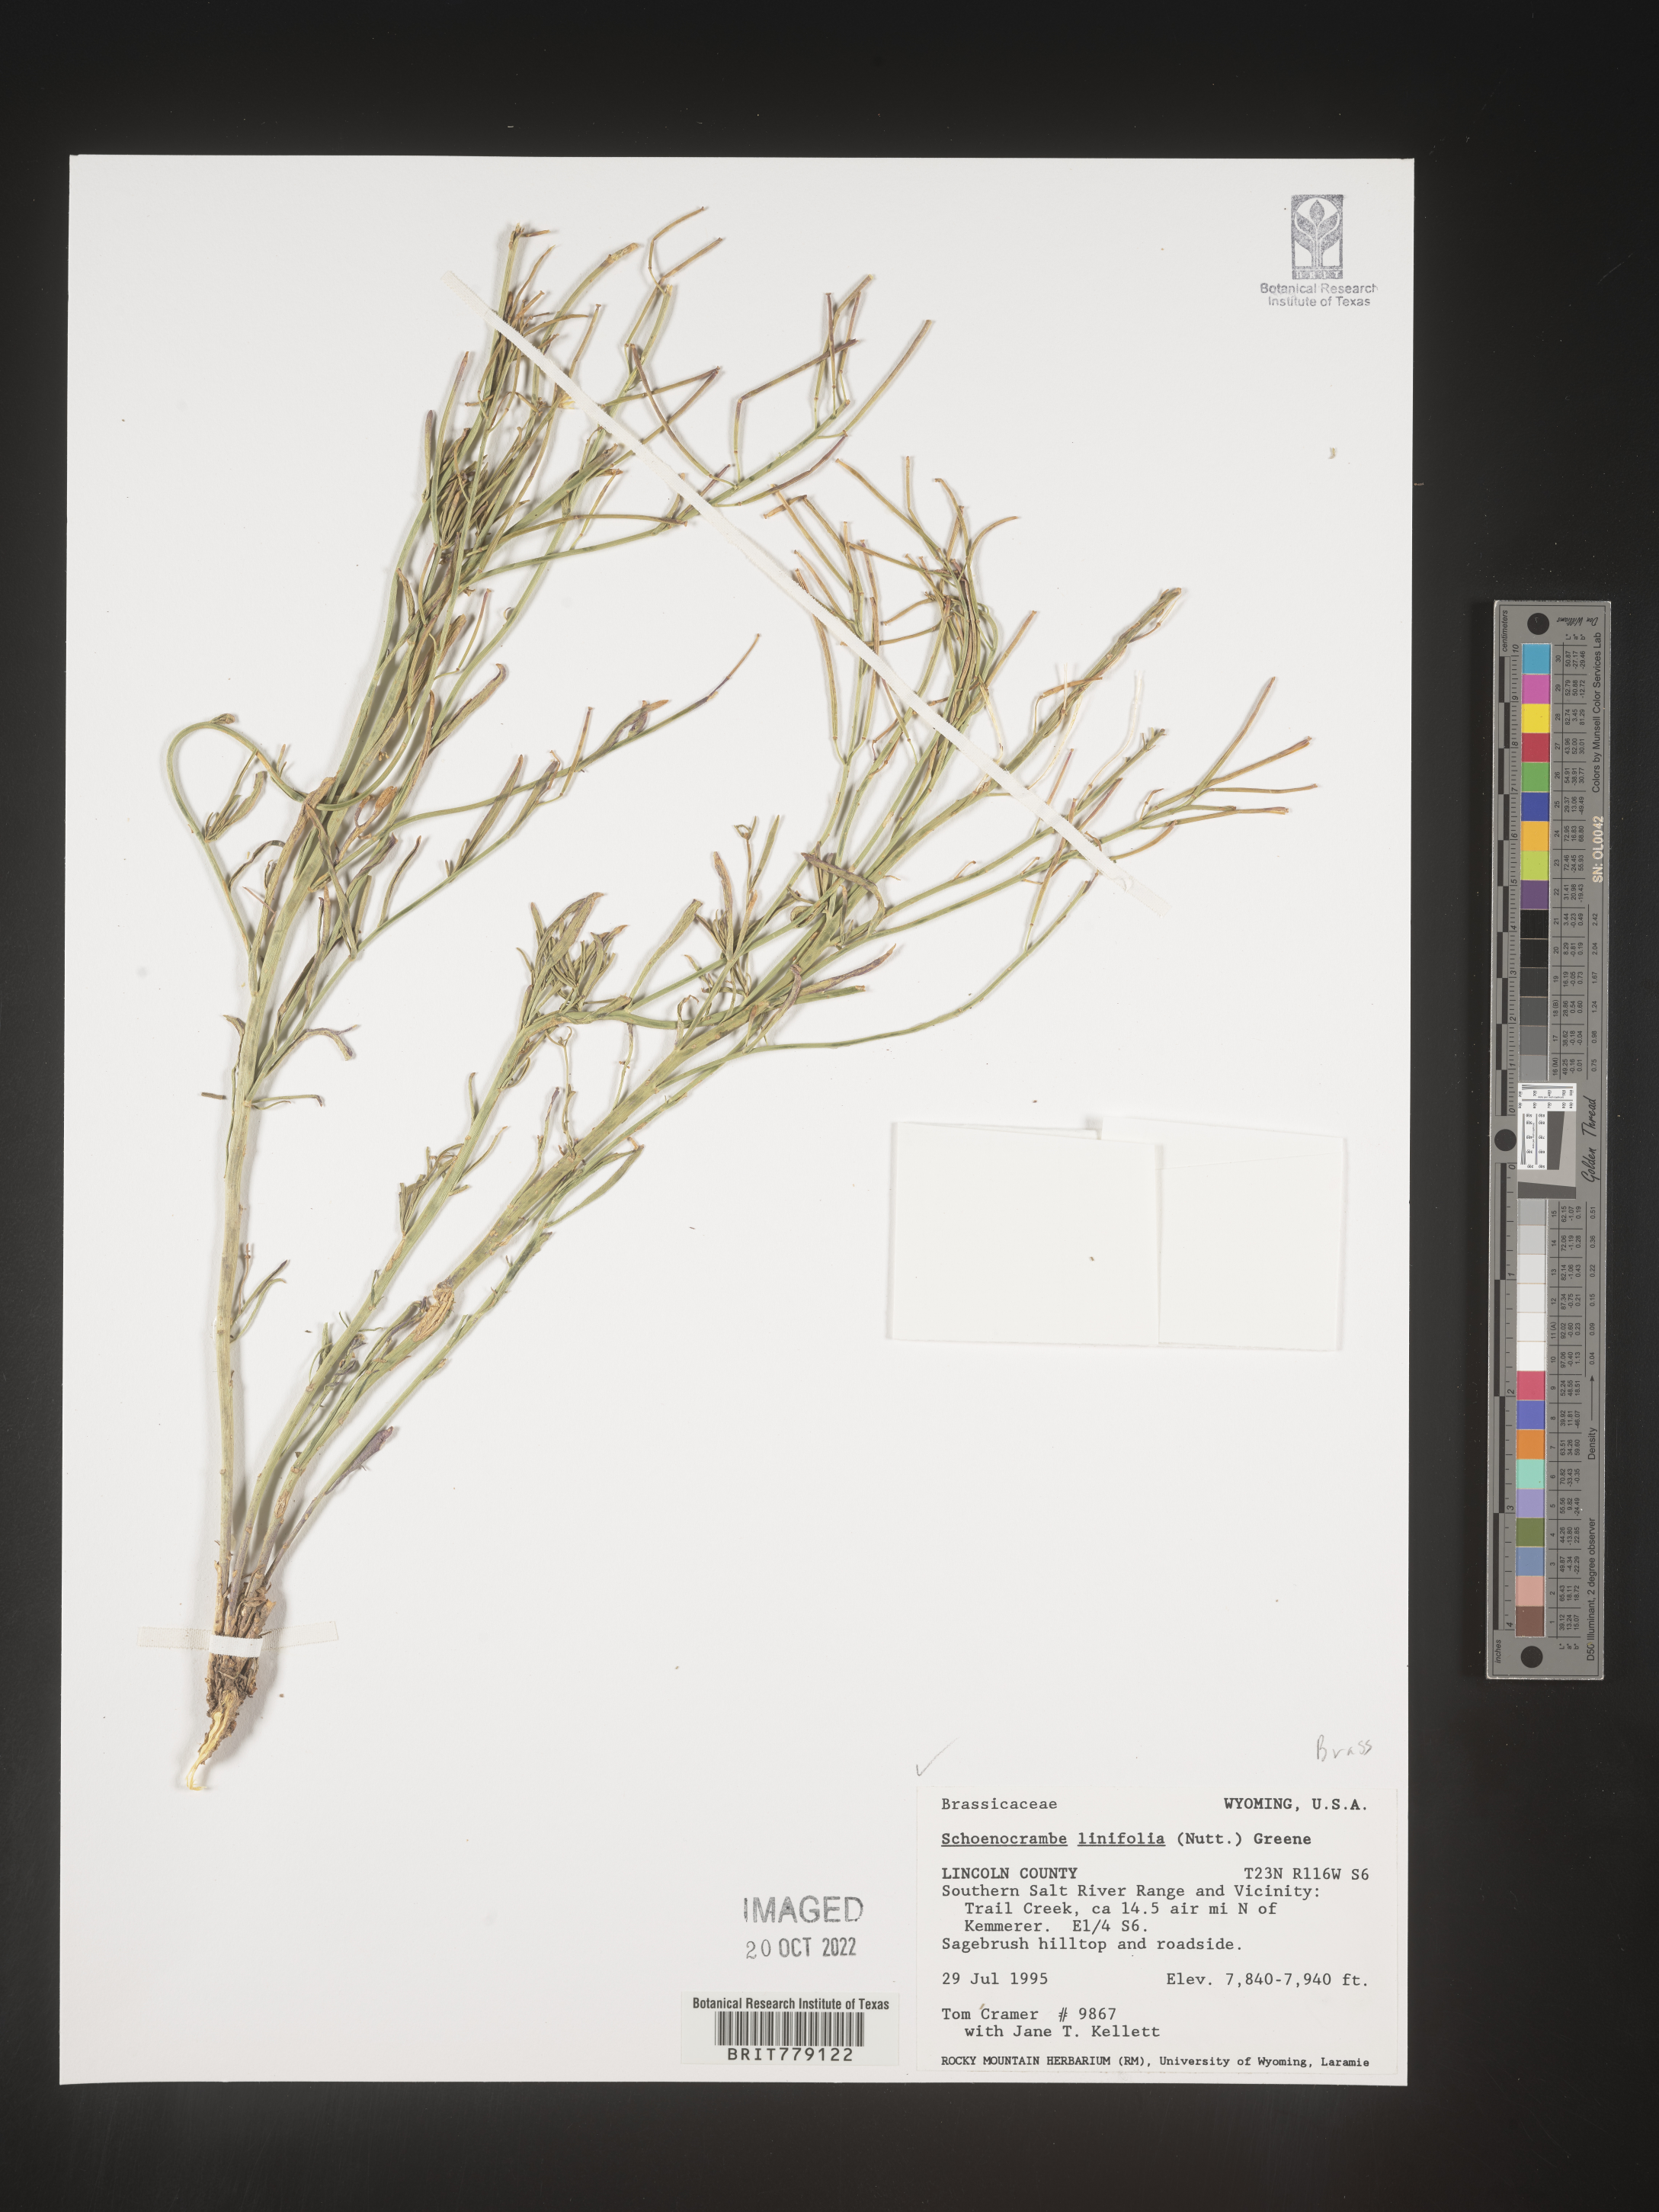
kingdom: Plantae
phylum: Tracheophyta
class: Magnoliopsida
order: Brassicales
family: Brassicaceae
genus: Hesperidanthus
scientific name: Hesperidanthus
